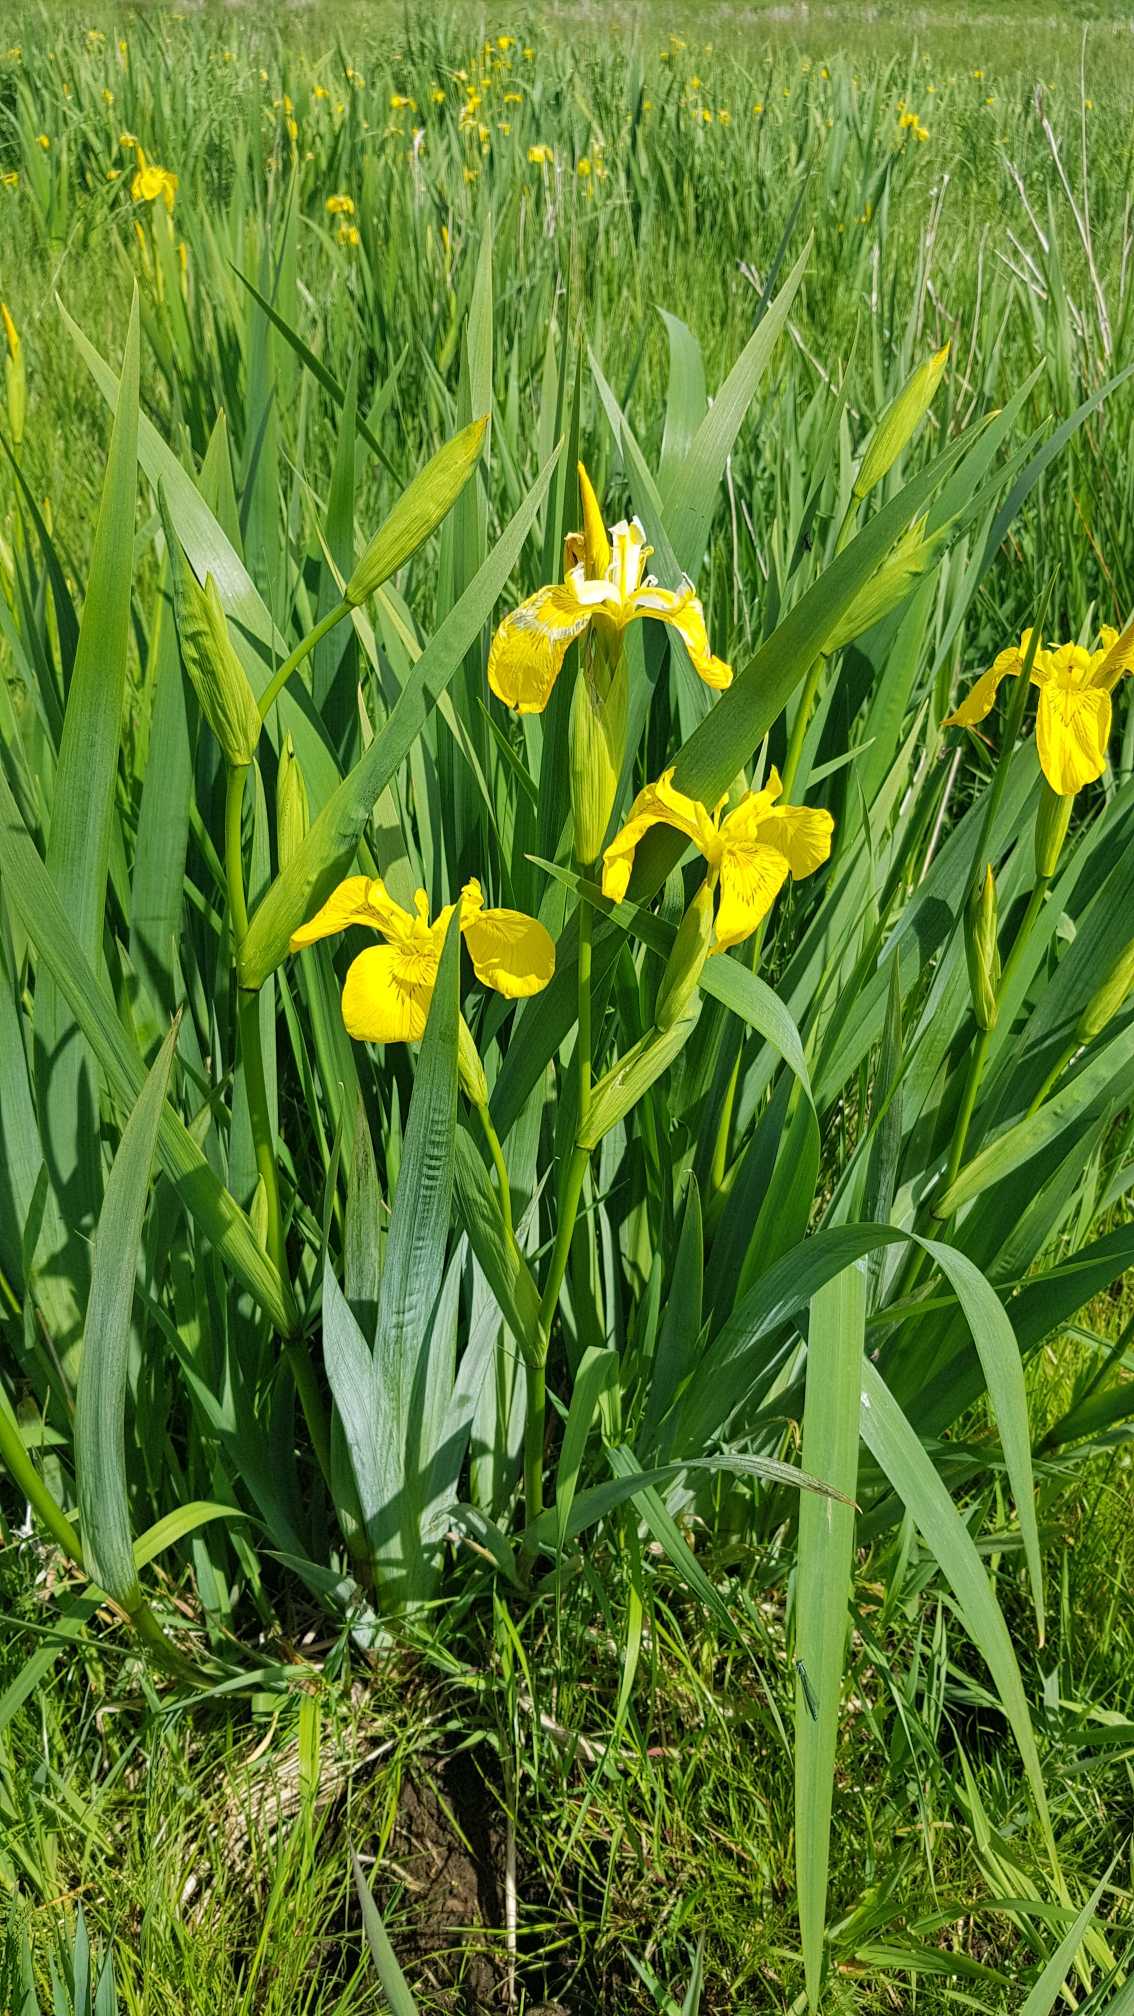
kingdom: Plantae
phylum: Tracheophyta
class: Liliopsida
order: Asparagales
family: Iridaceae
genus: Iris
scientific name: Iris pseudacorus
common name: Gul iris
